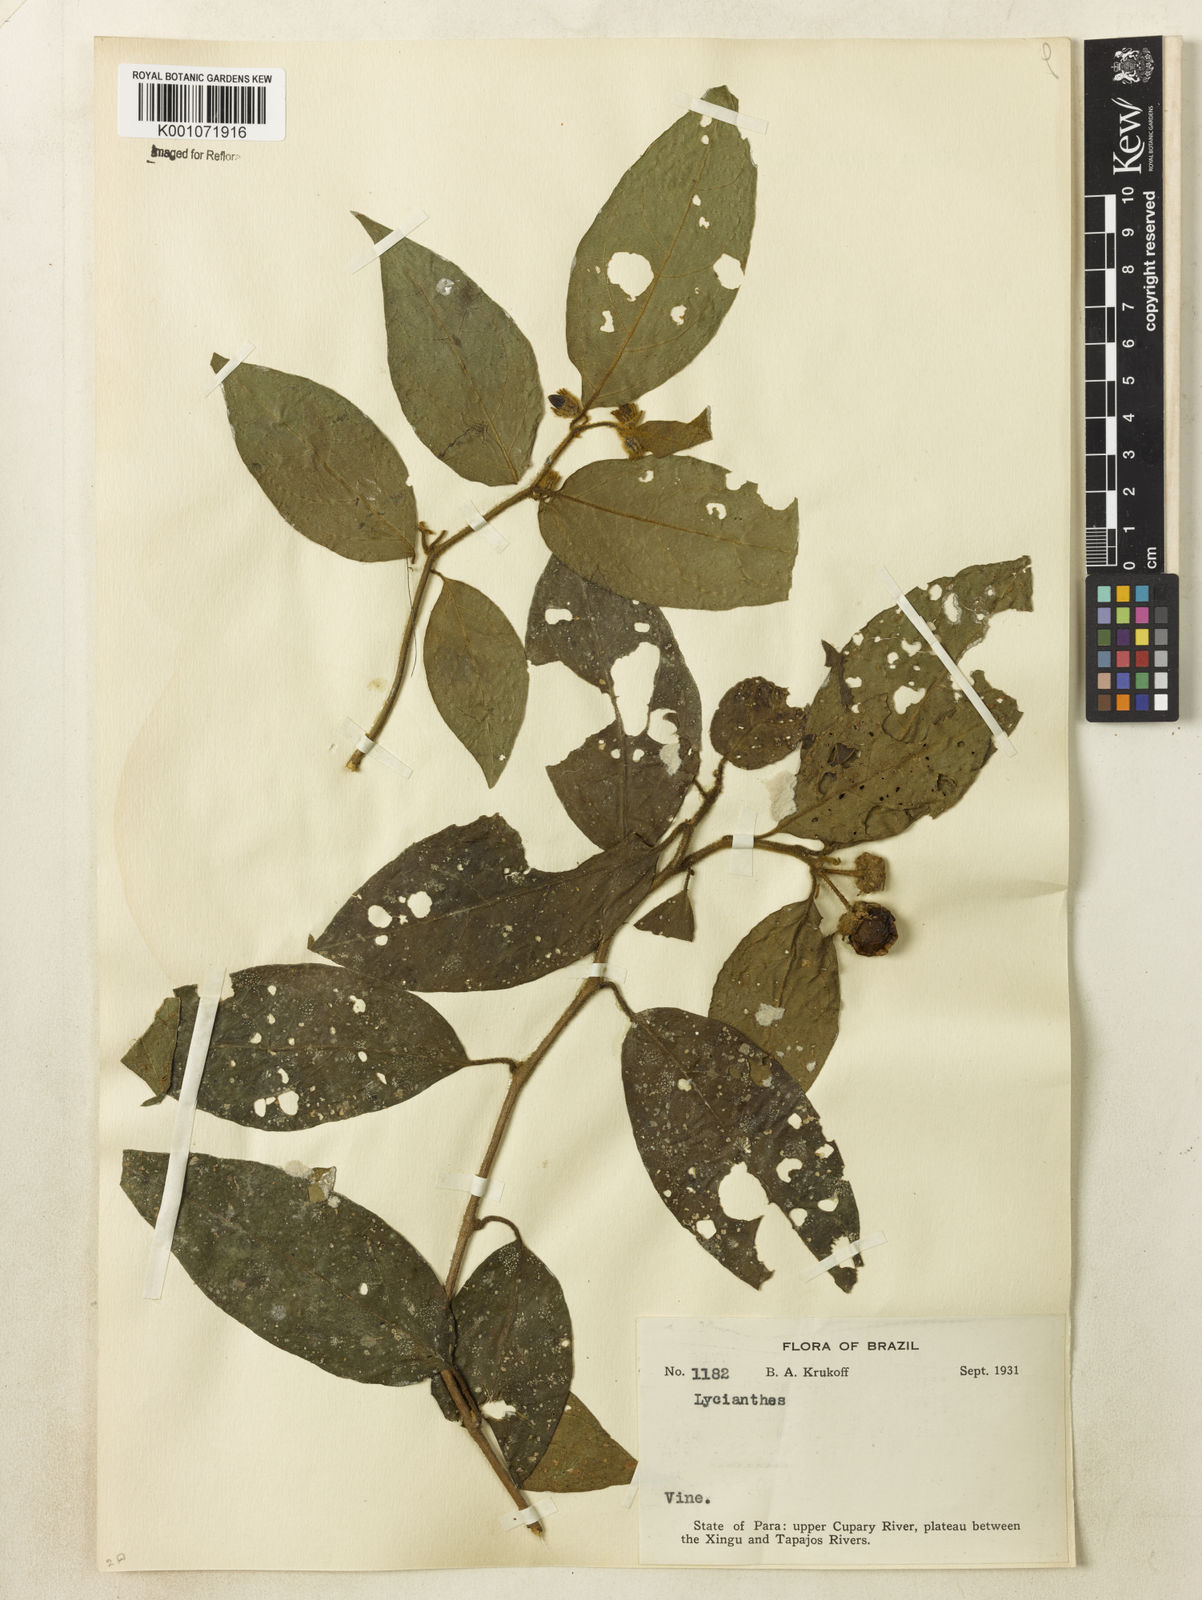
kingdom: Plantae
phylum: Tracheophyta
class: Magnoliopsida
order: Solanales
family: Solanaceae
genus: Lycianthes
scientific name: Lycianthes
